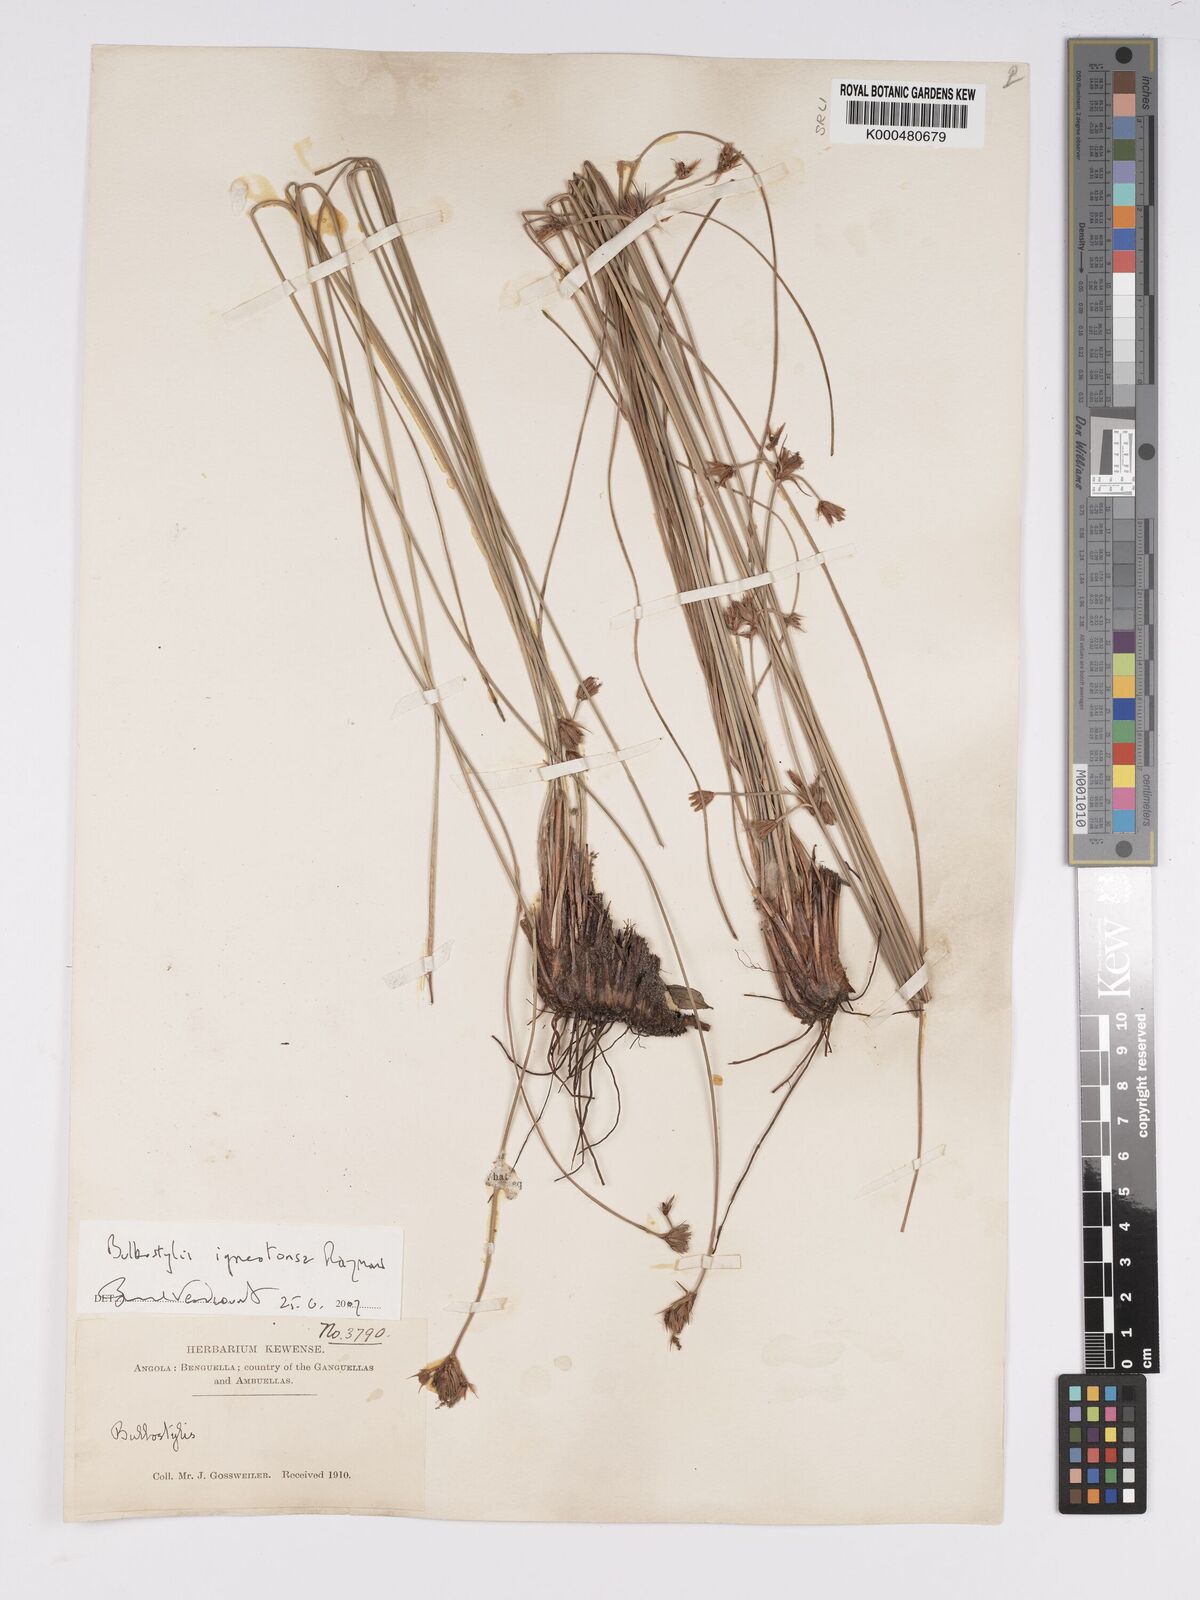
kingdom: Plantae
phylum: Tracheophyta
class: Liliopsida
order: Poales
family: Cyperaceae
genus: Bulbostylis
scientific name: Bulbostylis igneotonsa
